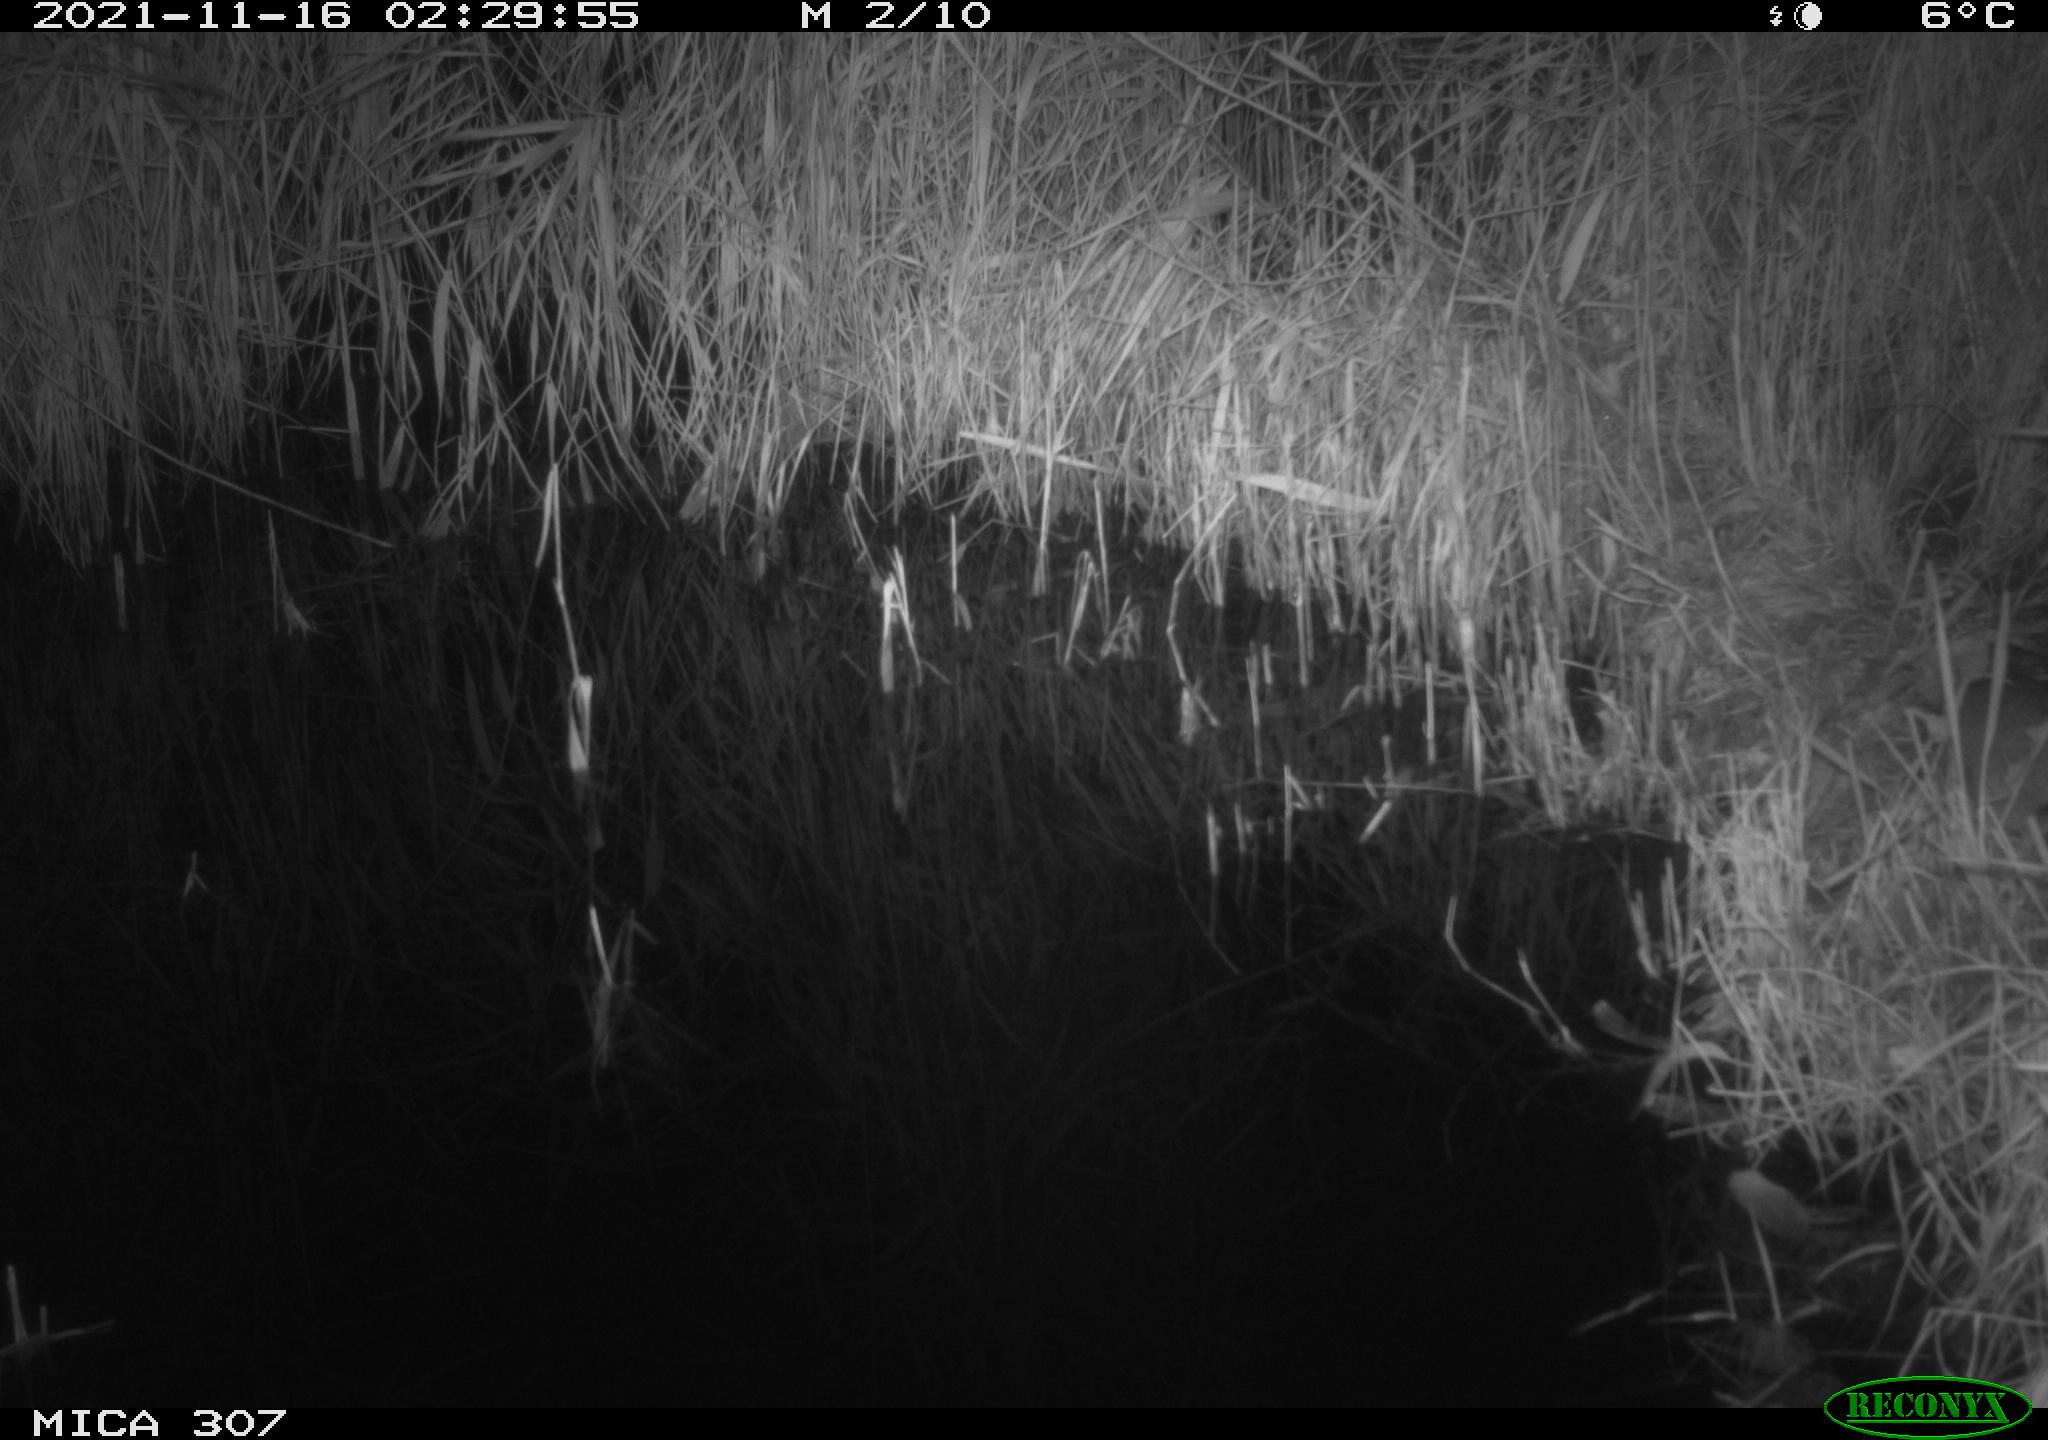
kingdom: Animalia
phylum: Chordata
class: Mammalia
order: Rodentia
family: Muridae
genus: Rattus
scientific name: Rattus norvegicus
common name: Brown rat
